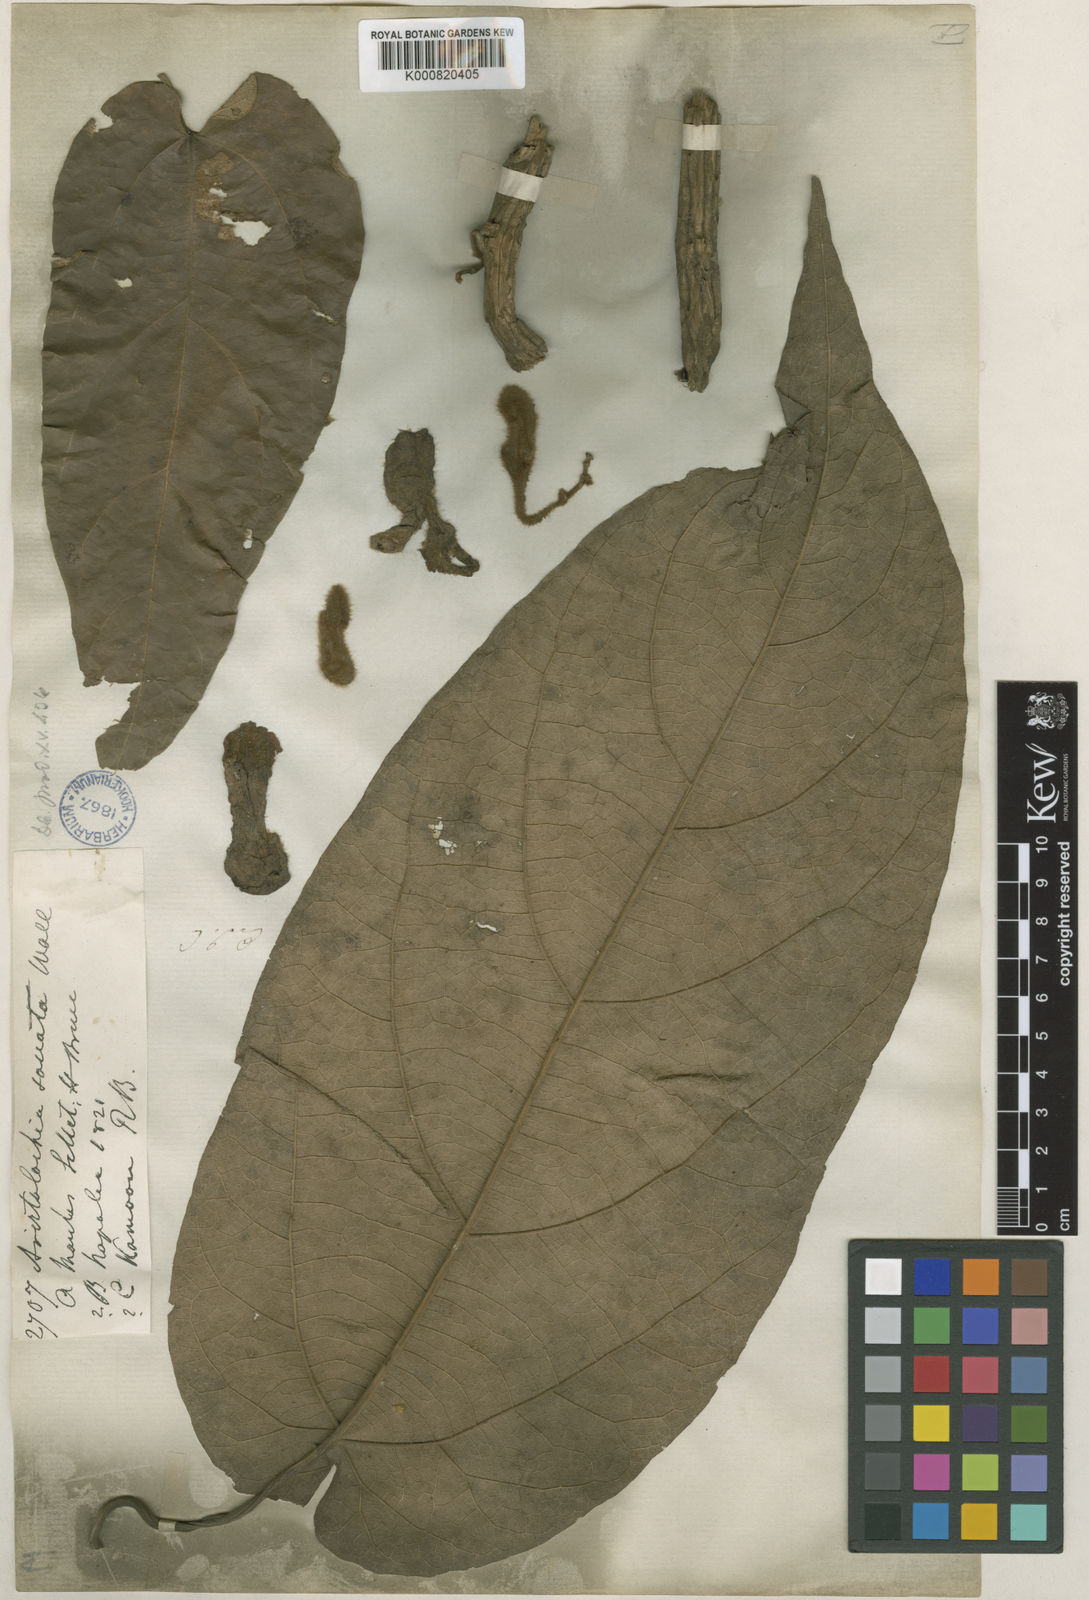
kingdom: Plantae
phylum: Tracheophyta
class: Magnoliopsida
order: Piperales
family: Aristolochiaceae
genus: Isotrema
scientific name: Isotrema
